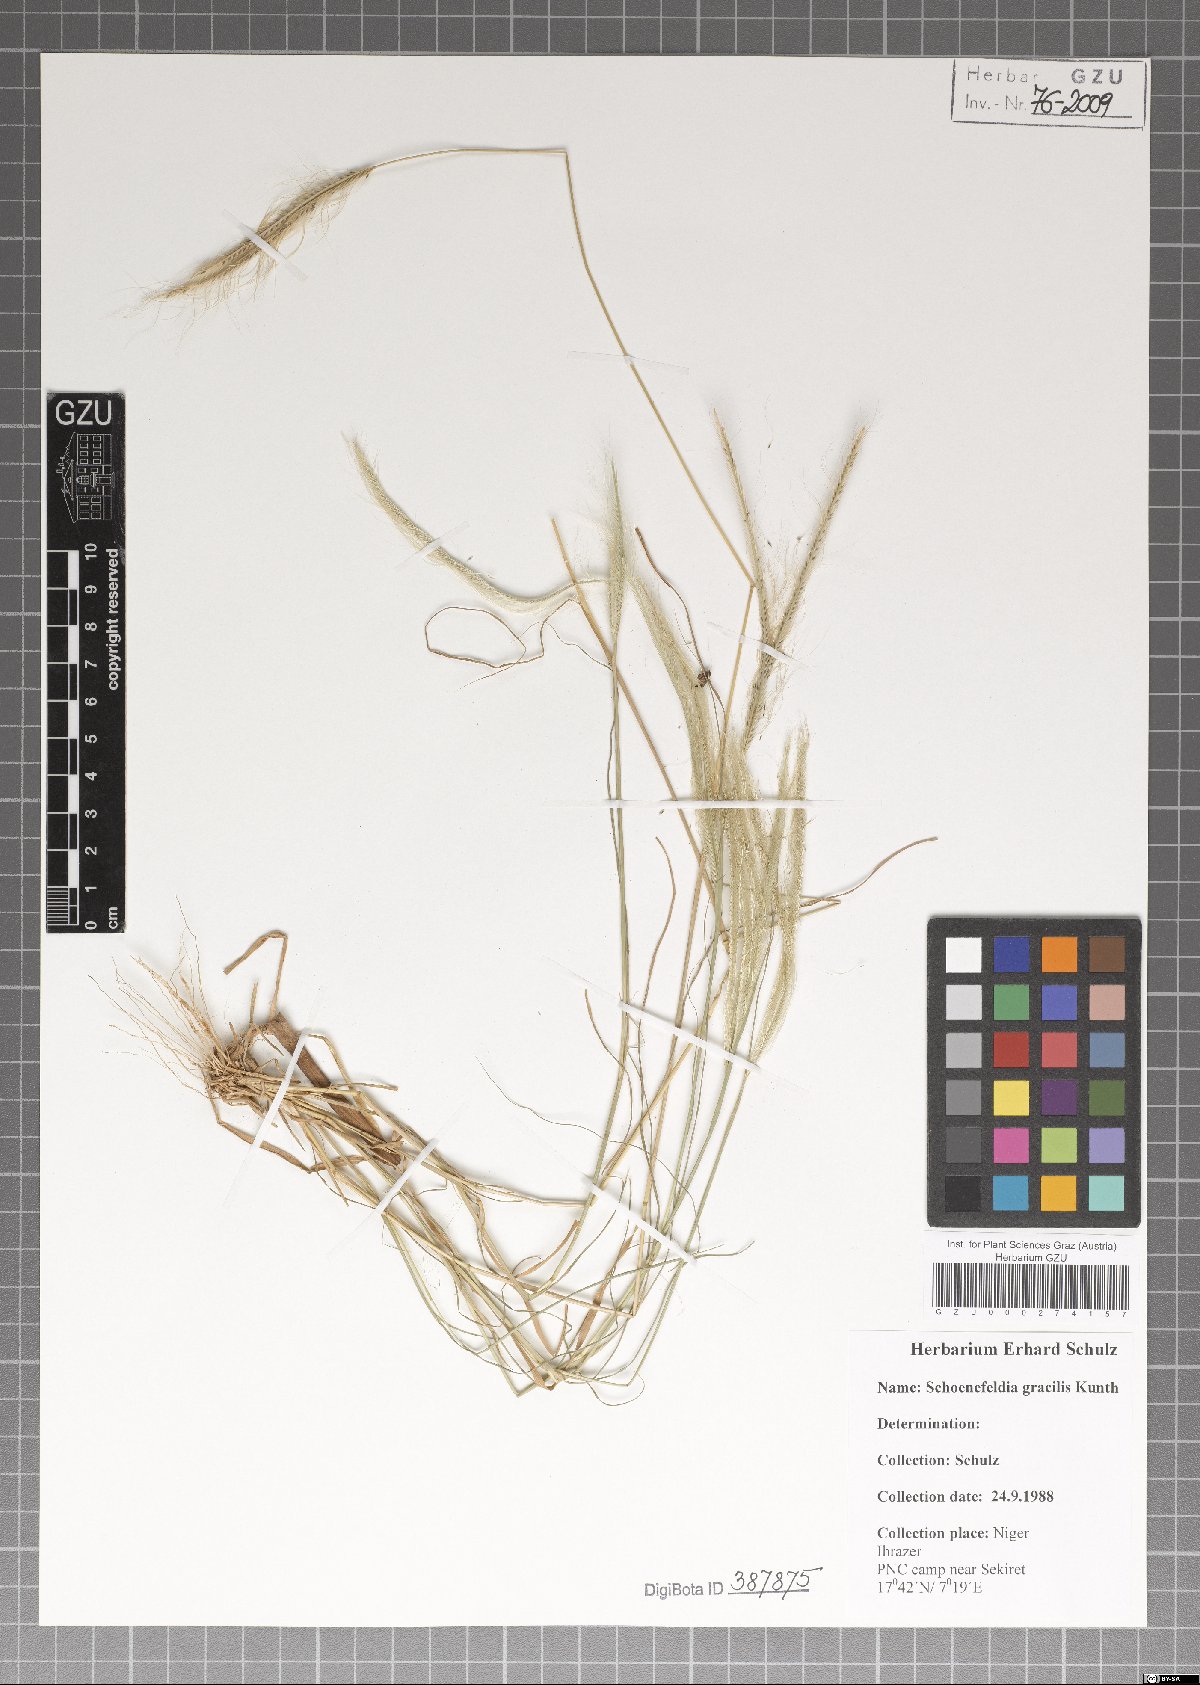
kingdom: Plantae
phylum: Tracheophyta
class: Liliopsida
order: Poales
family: Poaceae
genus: Schoenefeldia
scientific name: Schoenefeldia gracilis
